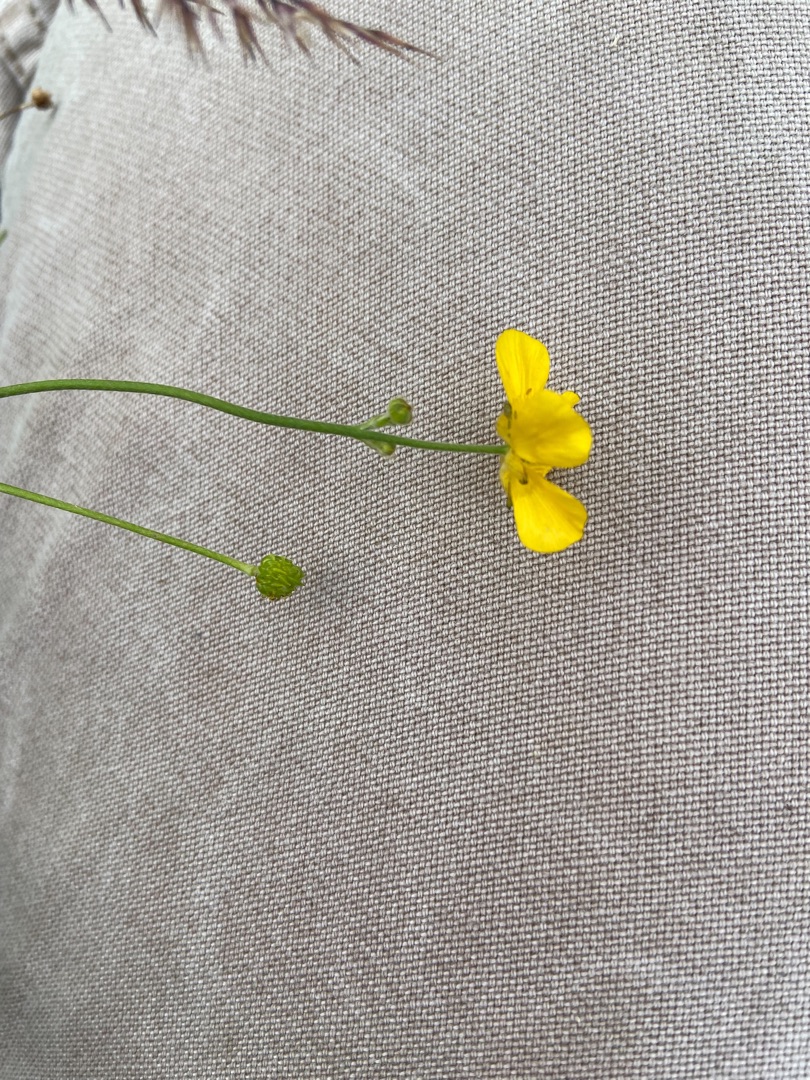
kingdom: Plantae
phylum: Tracheophyta
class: Magnoliopsida
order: Ranunculales
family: Ranunculaceae
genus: Ranunculus
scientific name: Ranunculus acris
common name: Bidende ranunkel
